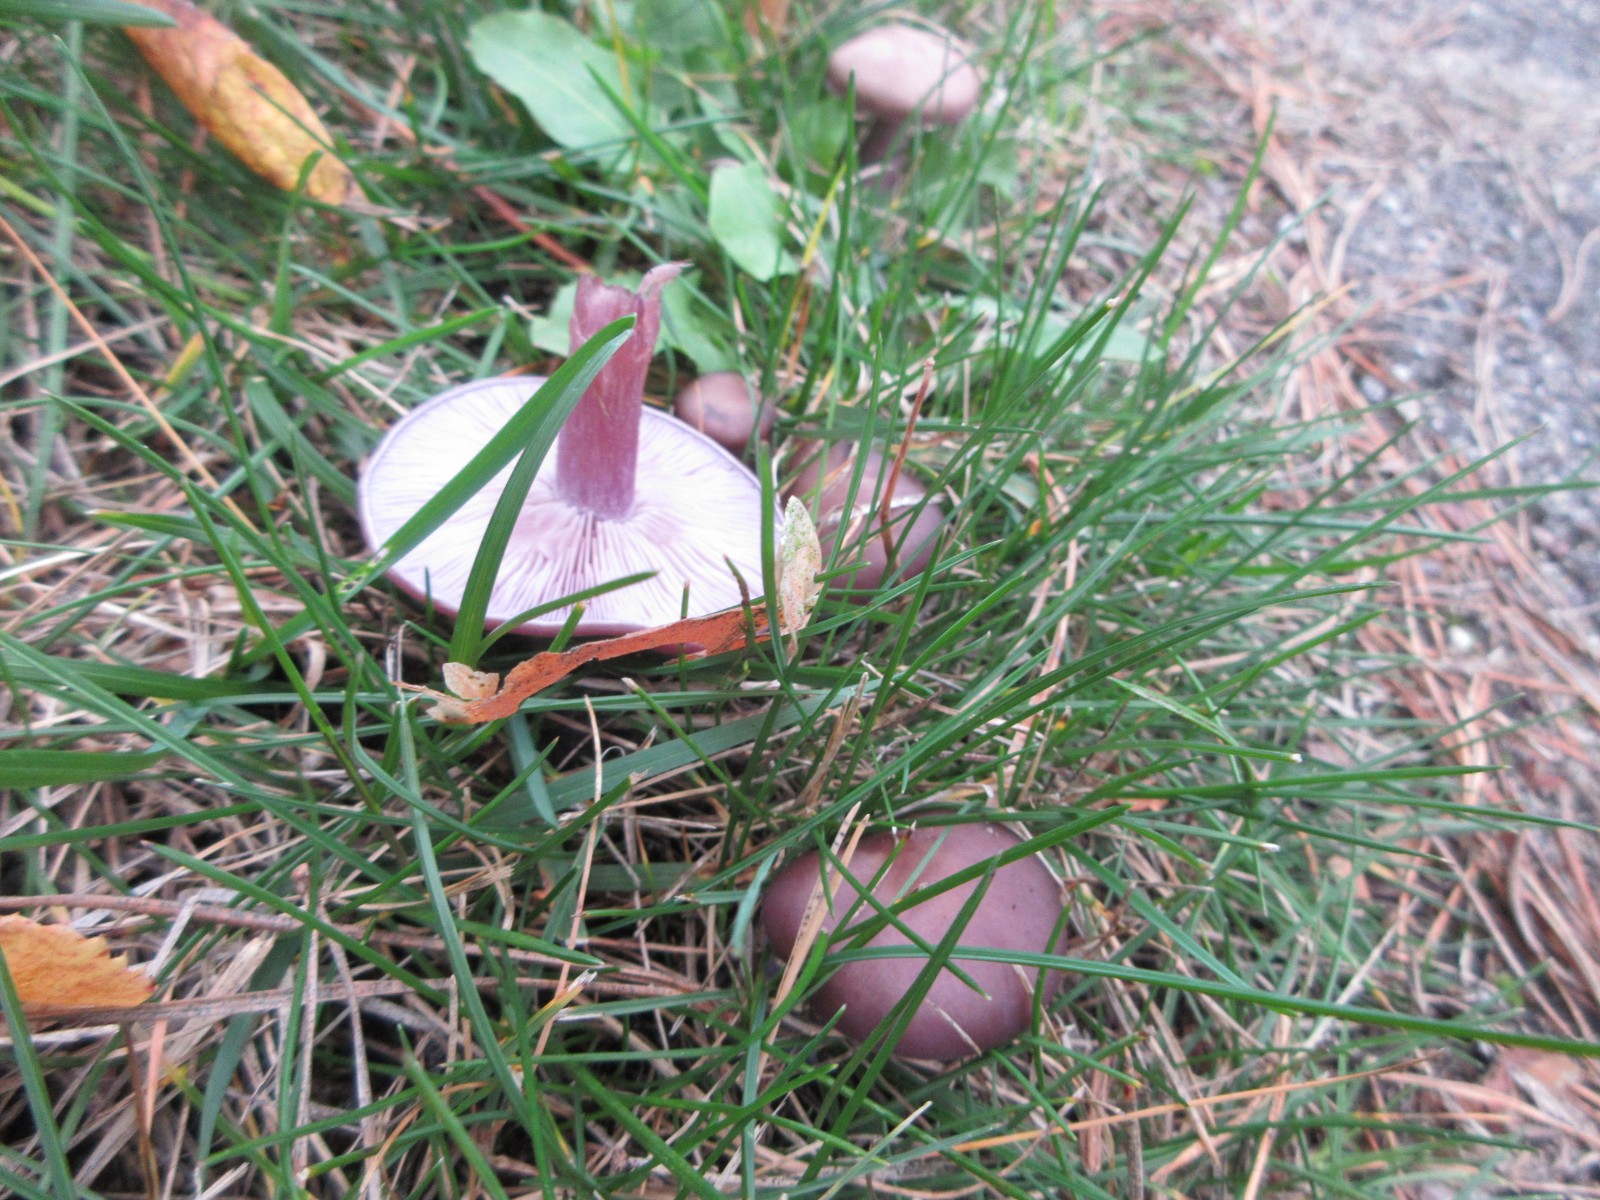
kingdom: Fungi
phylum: Basidiomycota
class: Agaricomycetes
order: Agaricales
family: Tricholomataceae
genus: Lepista
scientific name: Lepista nuda
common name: violet hekseringshat
